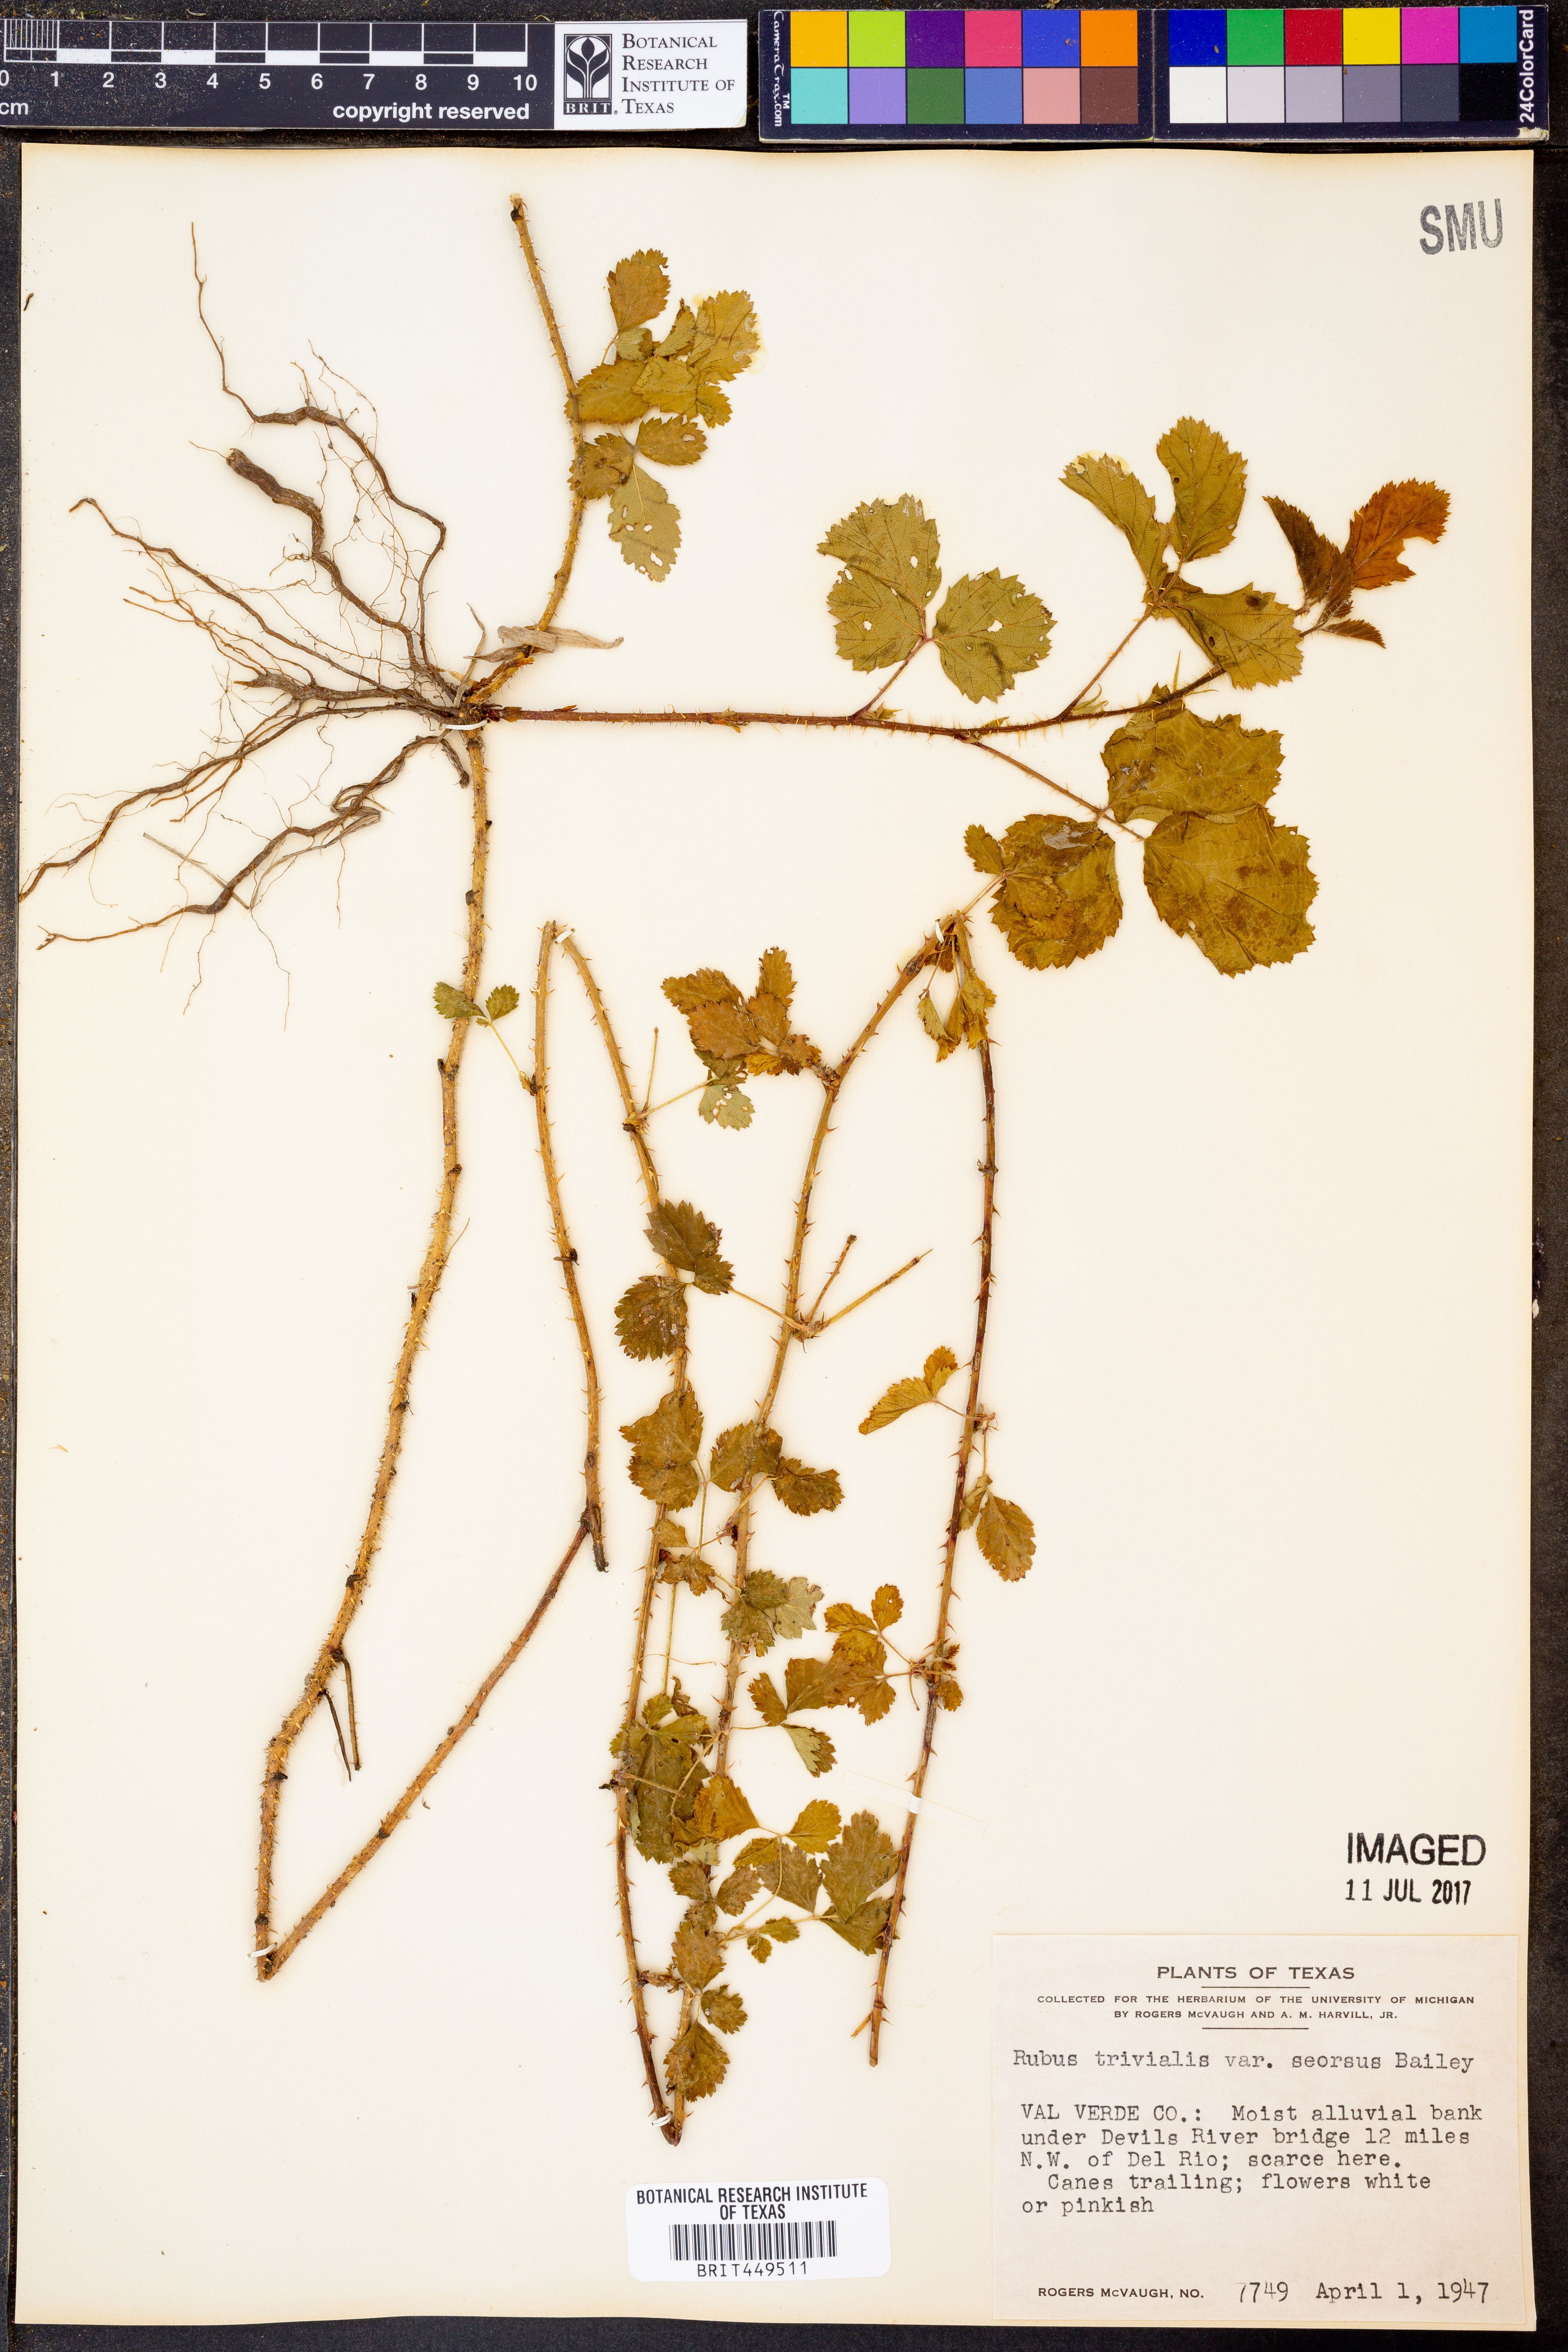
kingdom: Plantae
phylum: Tracheophyta
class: Magnoliopsida
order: Rosales
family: Rosaceae
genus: Rubus
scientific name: Rubus trivialis
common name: Southern dewberry
